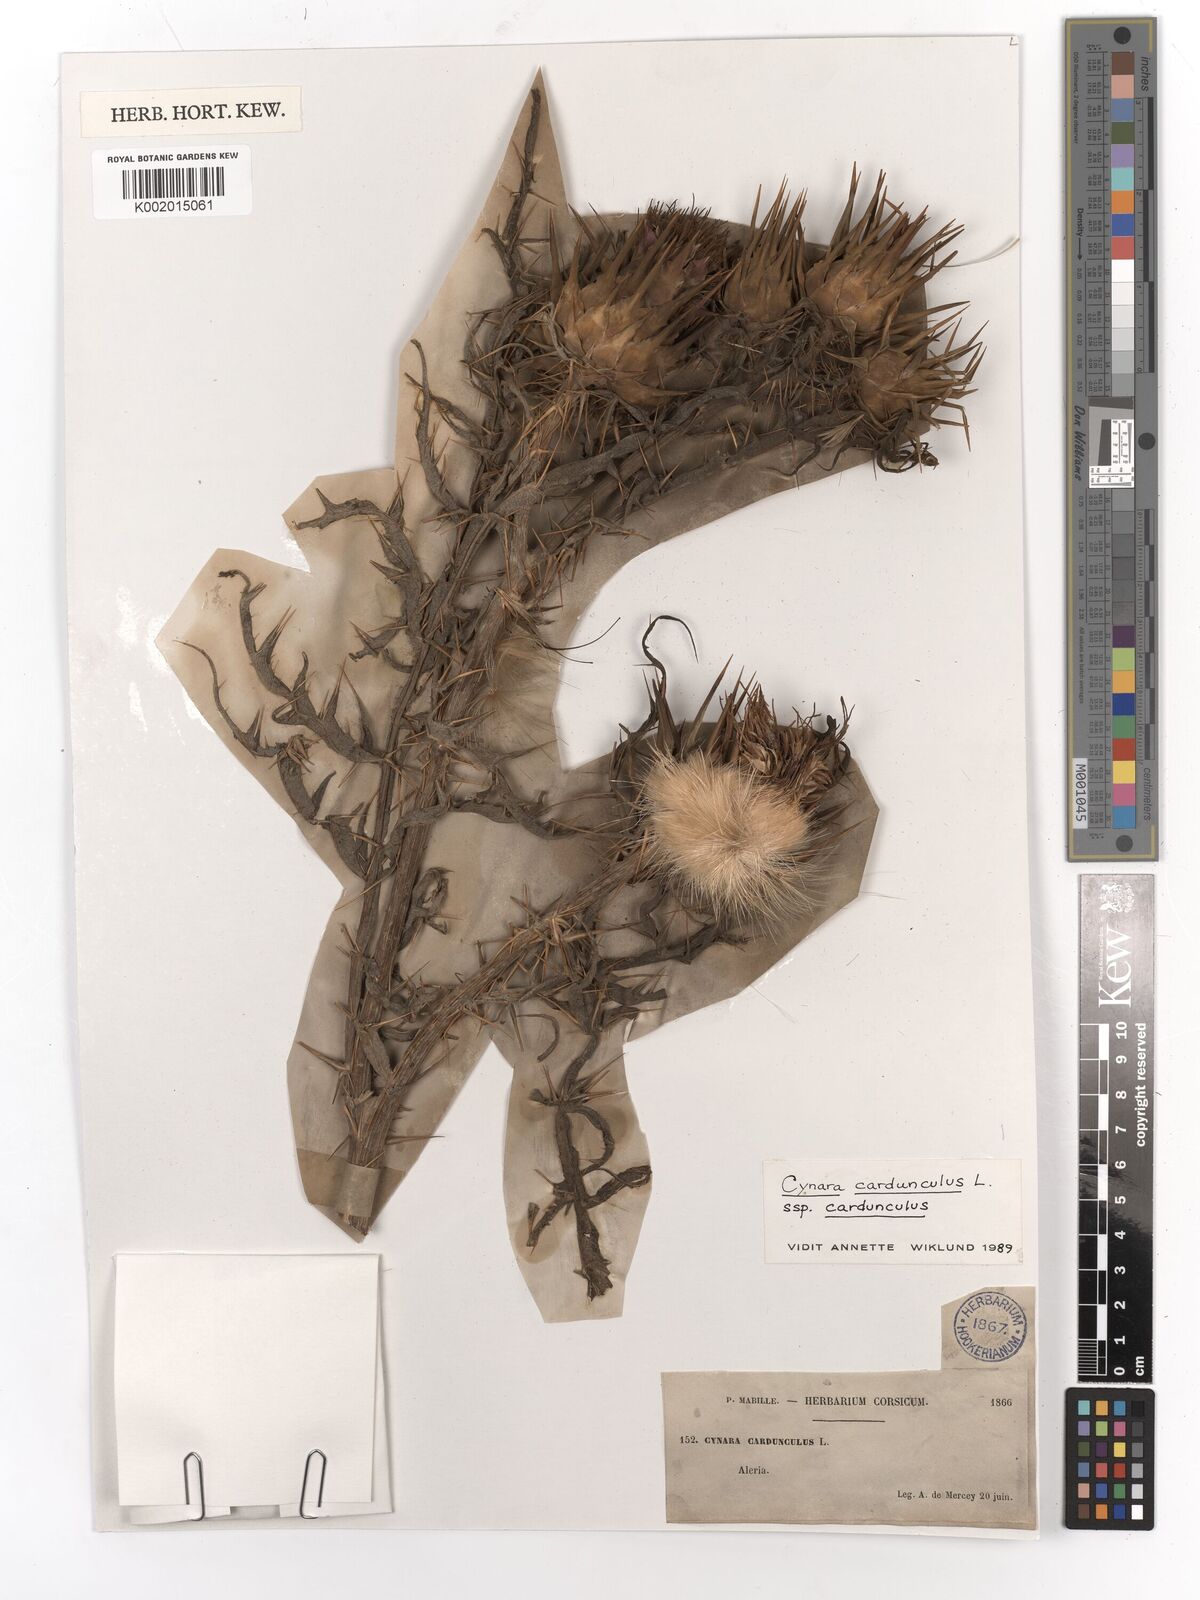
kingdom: Plantae
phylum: Tracheophyta
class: Magnoliopsida
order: Asterales
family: Asteraceae
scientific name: Asteraceae
